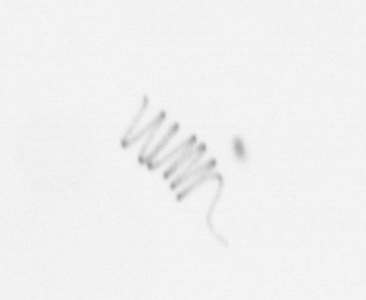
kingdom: Chromista
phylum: Ochrophyta
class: Bacillariophyceae
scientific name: Bacillariophyceae
